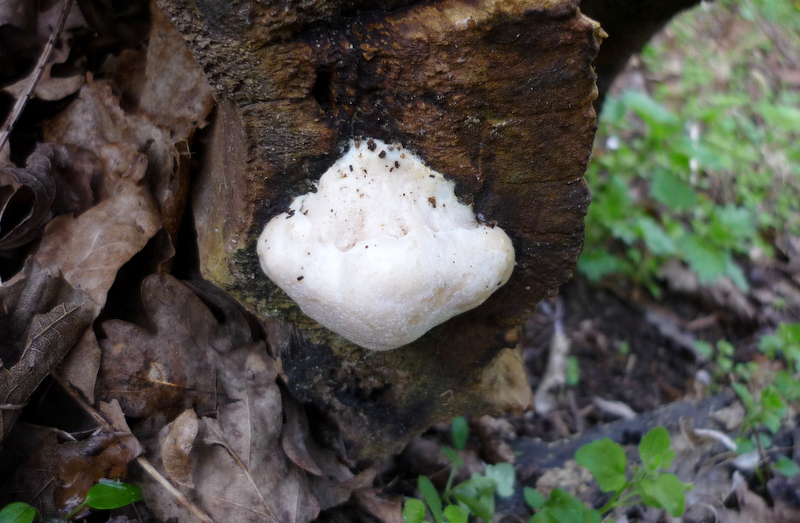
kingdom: Protozoa
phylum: Mycetozoa
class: Myxomycetes
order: Cribrariales
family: Tubiferaceae
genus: Reticularia
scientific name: Reticularia lycoperdon
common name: skinnende støvpude
